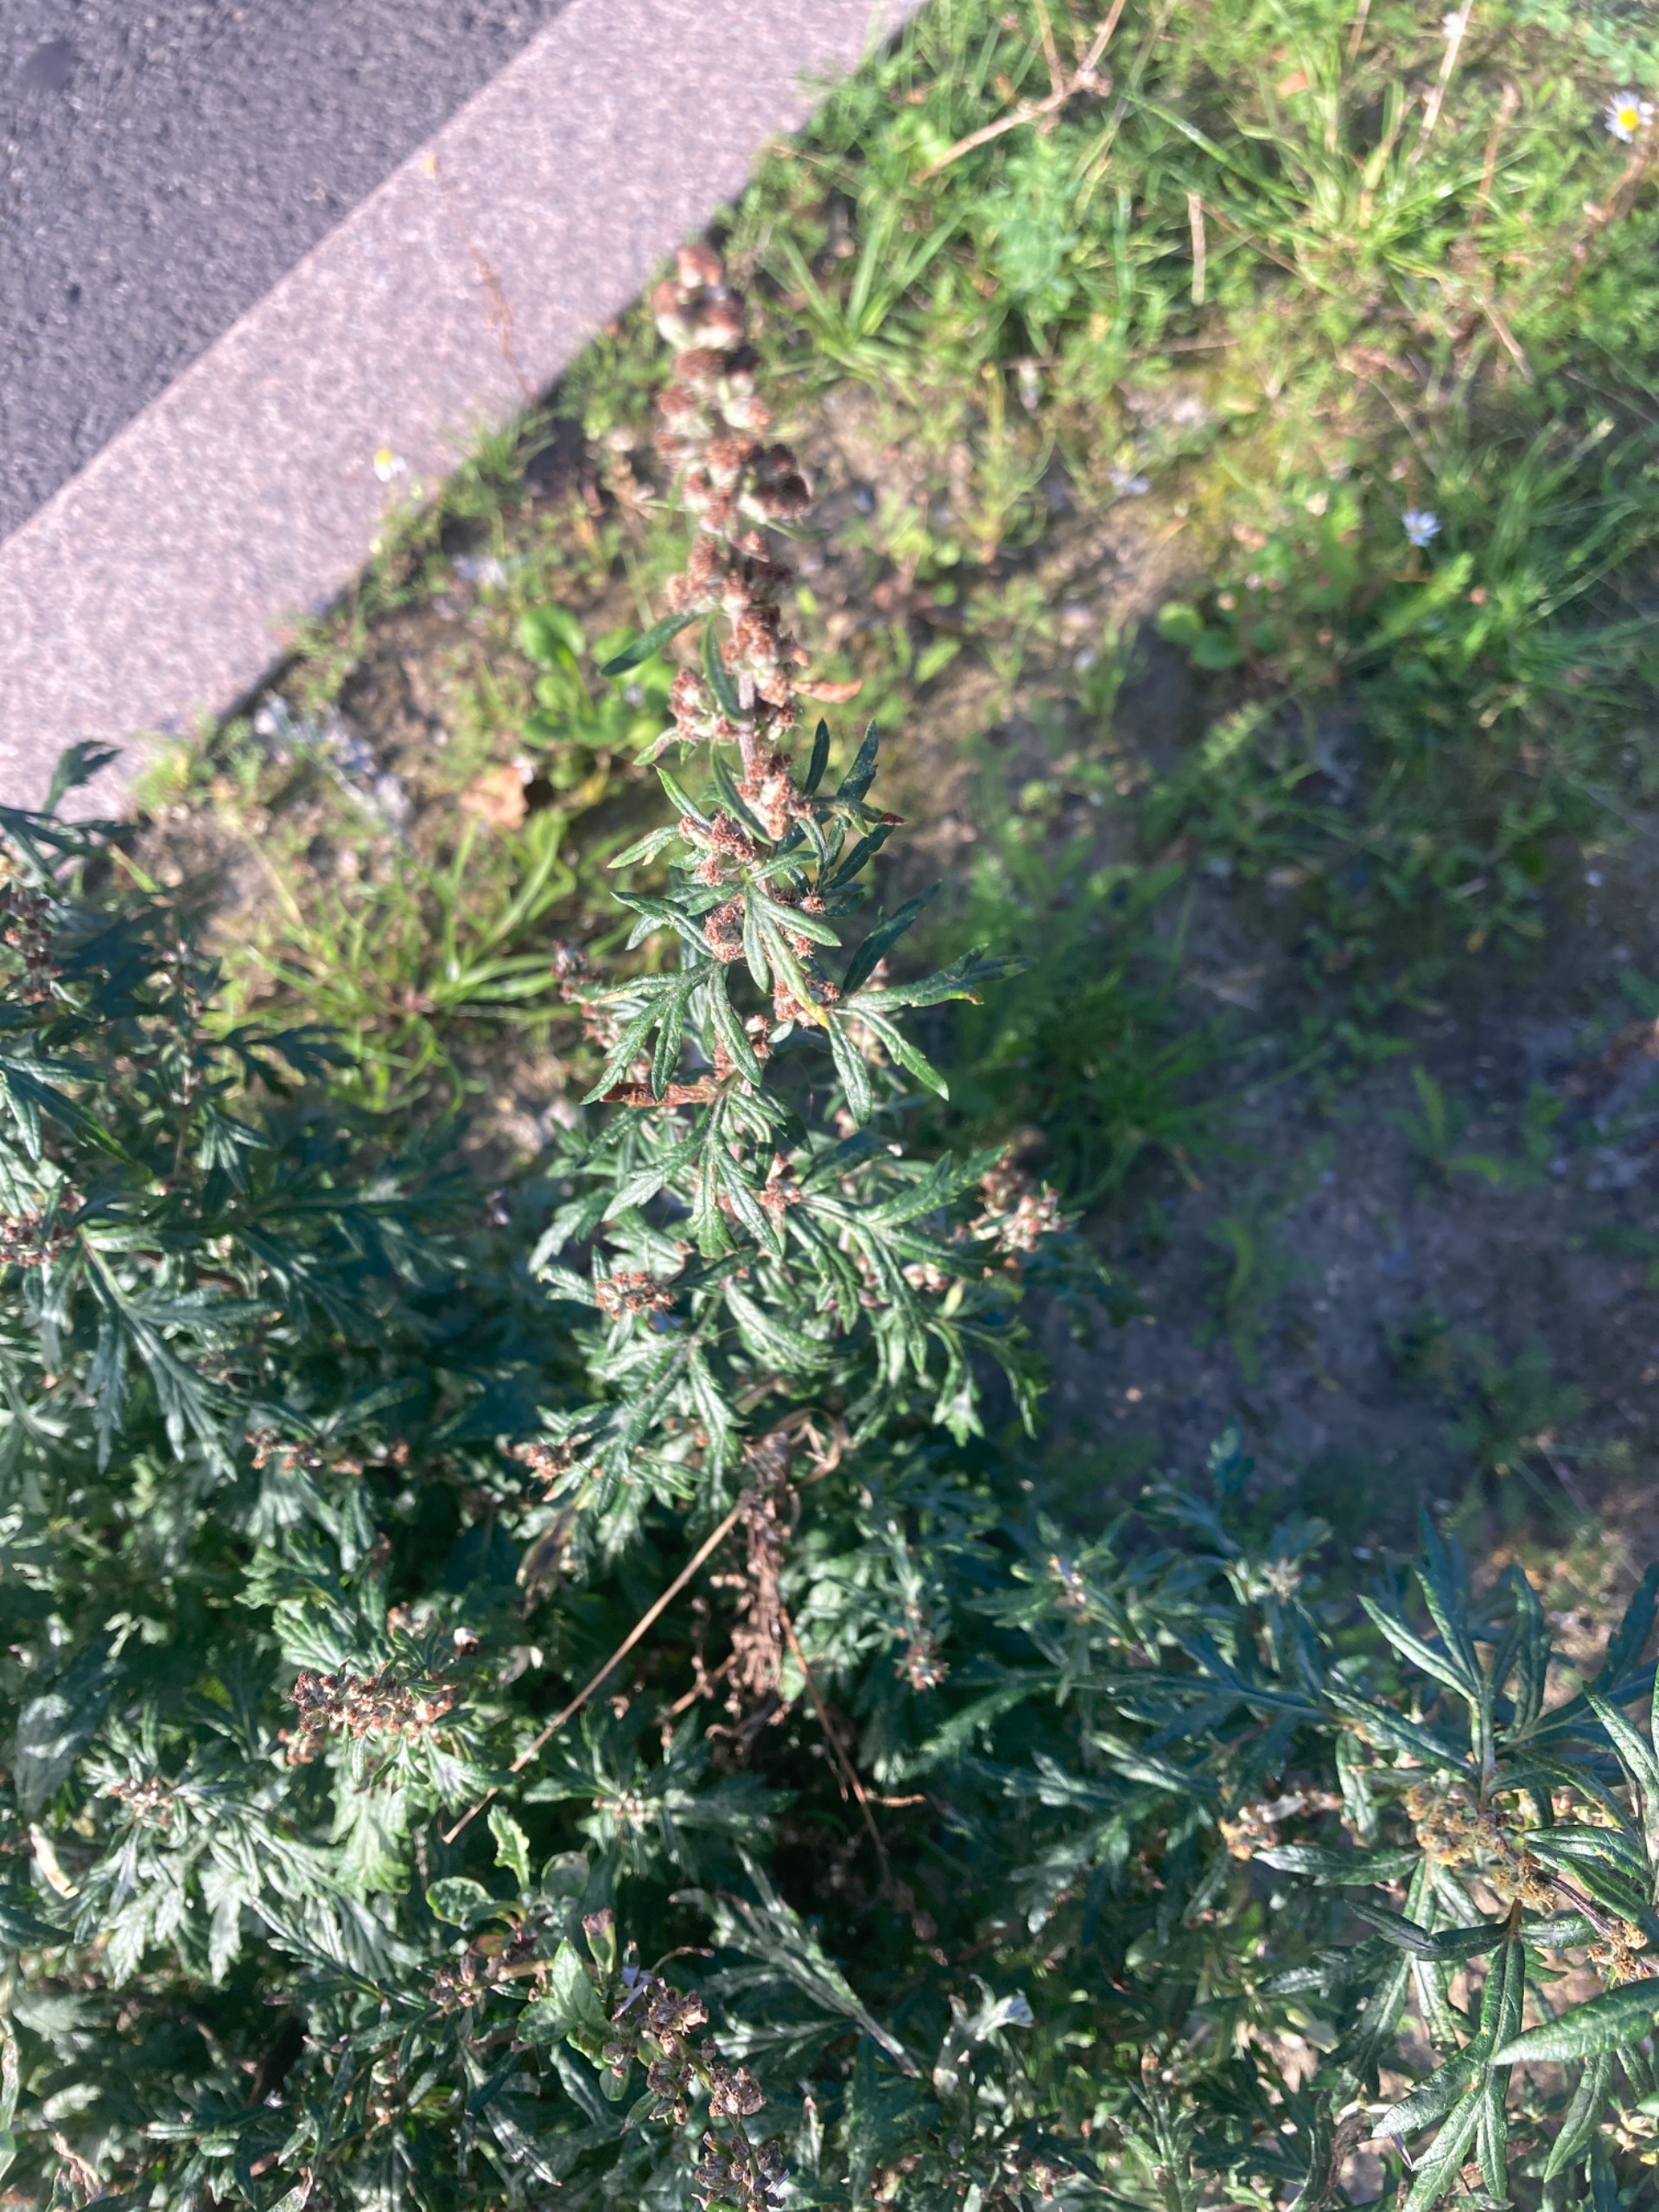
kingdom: Plantae
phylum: Tracheophyta
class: Magnoliopsida
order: Asterales
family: Asteraceae
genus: Artemisia
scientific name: Artemisia vulgaris
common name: Grå-bynke
